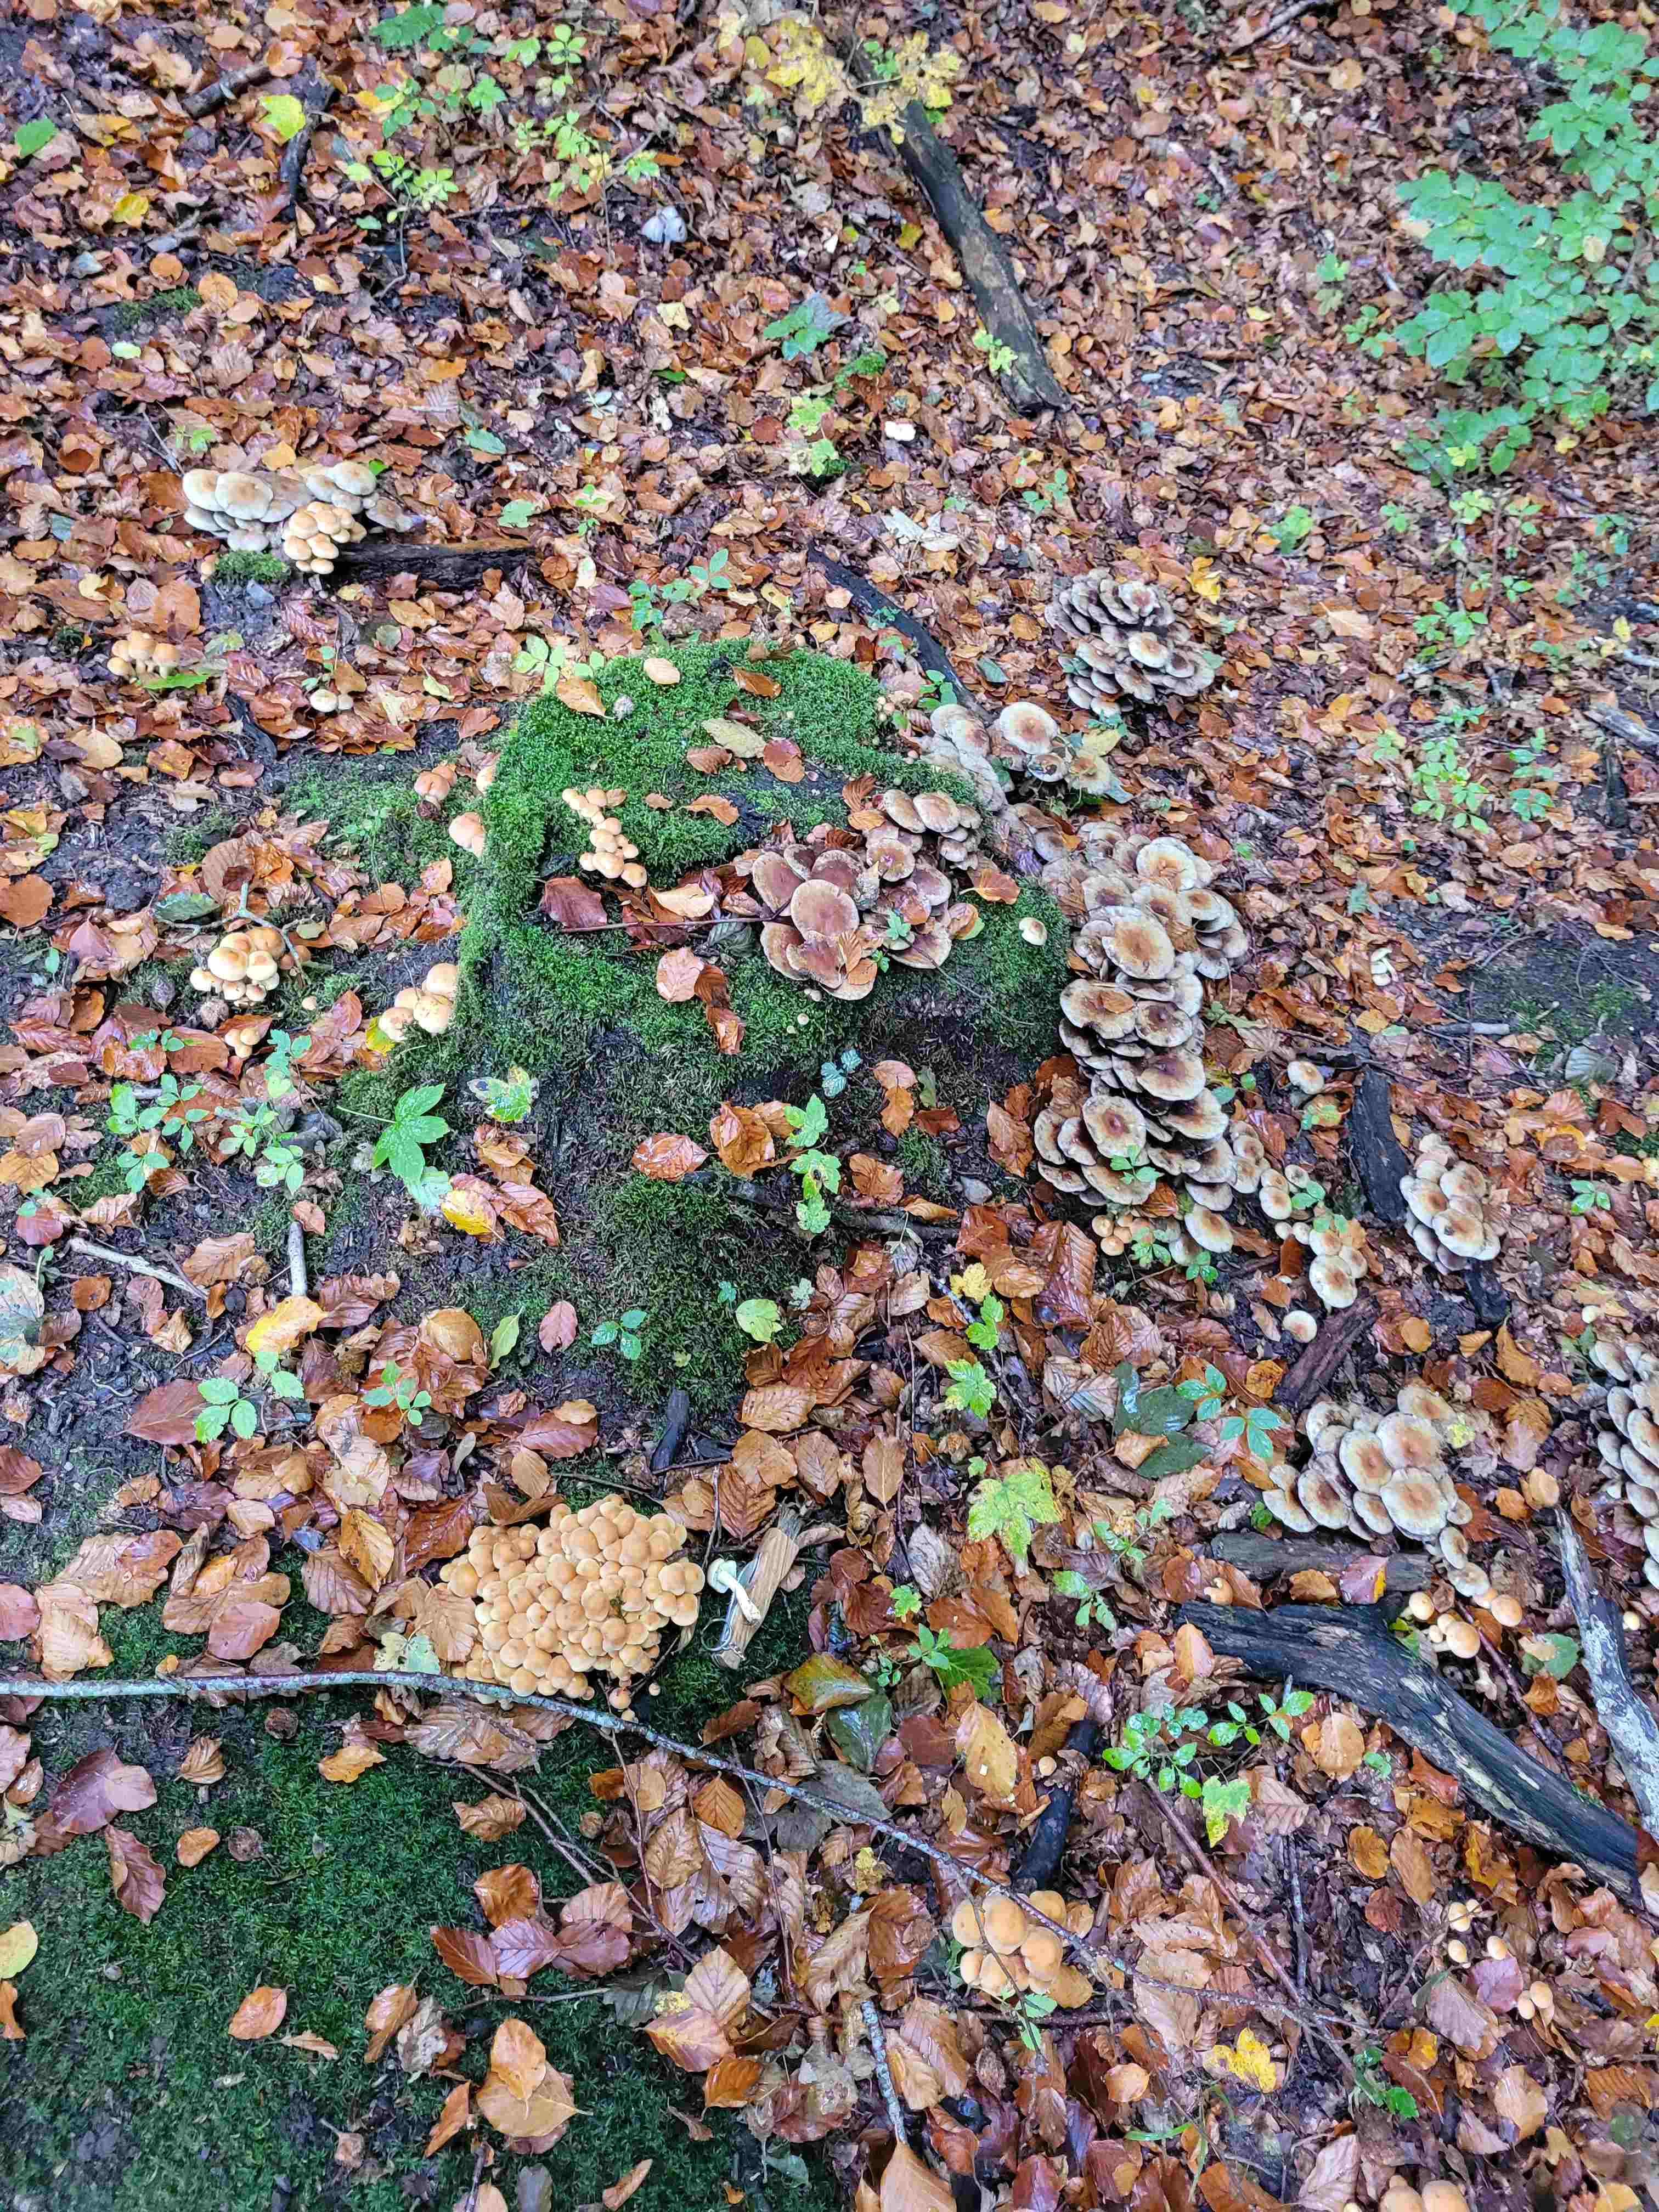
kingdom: Fungi
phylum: Basidiomycota
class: Agaricomycetes
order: Agaricales
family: Strophariaceae
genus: Hypholoma
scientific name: Hypholoma fasciculare
